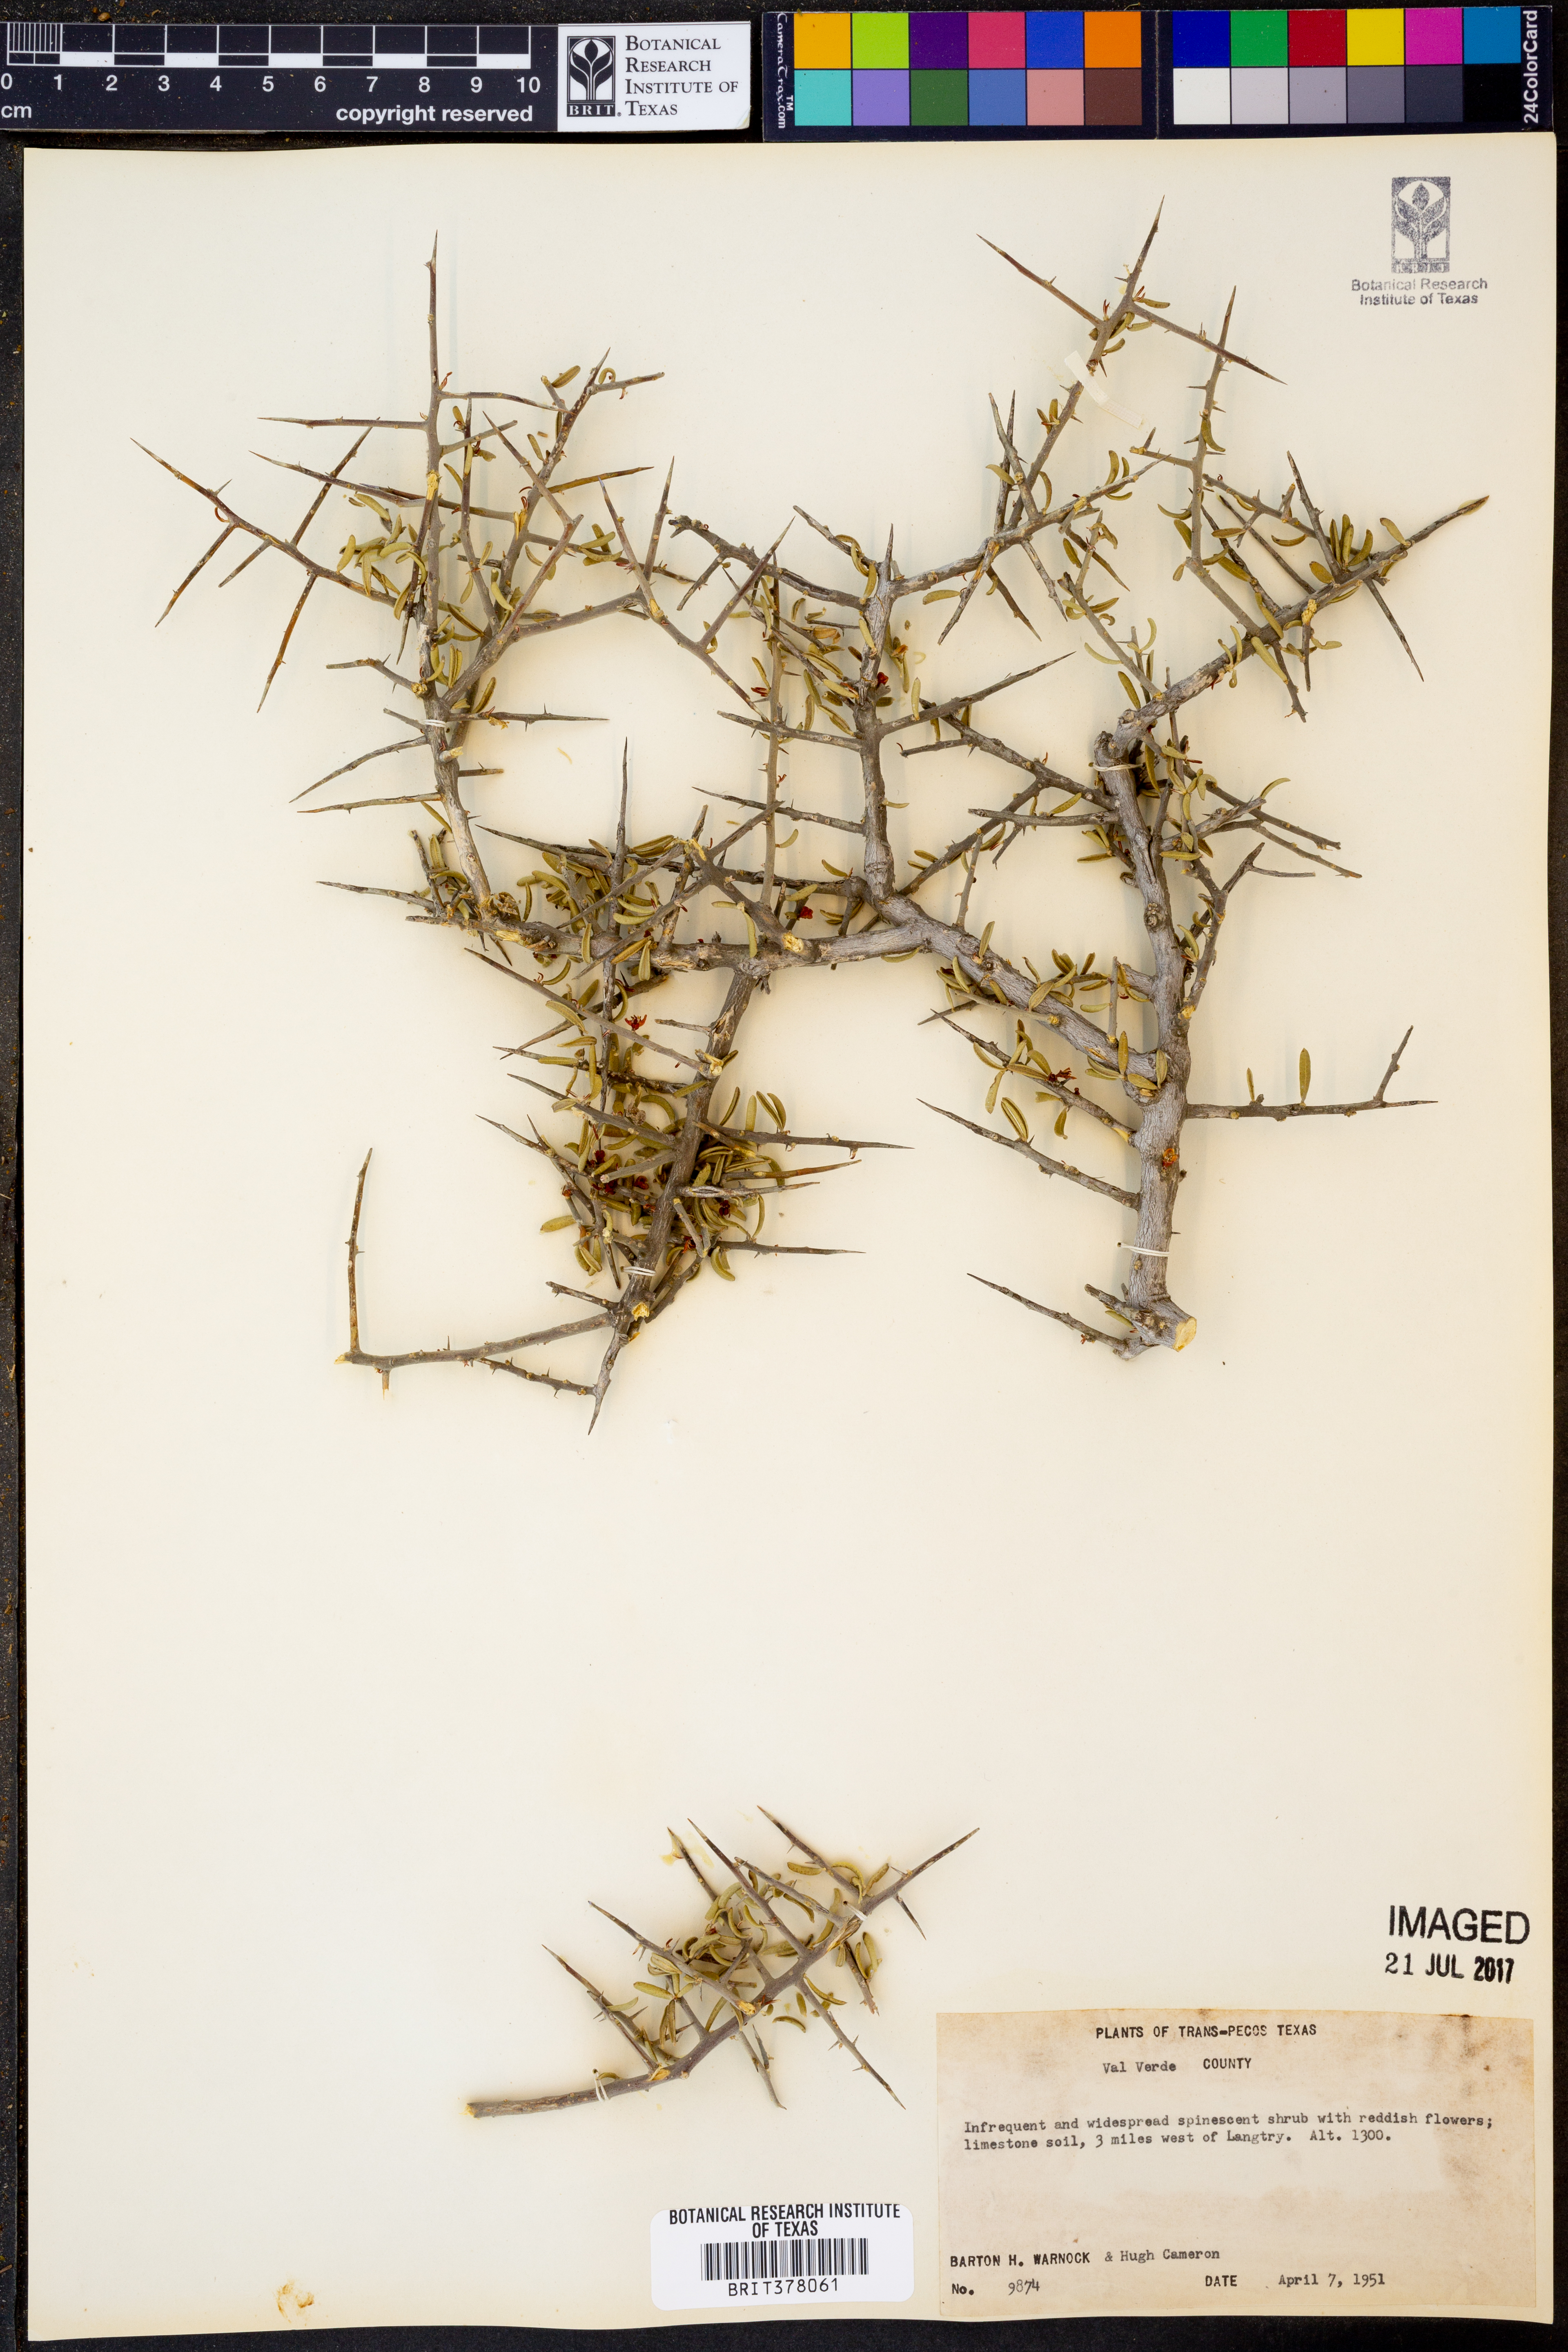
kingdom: Plantae
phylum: Tracheophyta
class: Magnoliopsida
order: Sapindales
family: Simaroubaceae
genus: Castela
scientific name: Castela tortuosa
